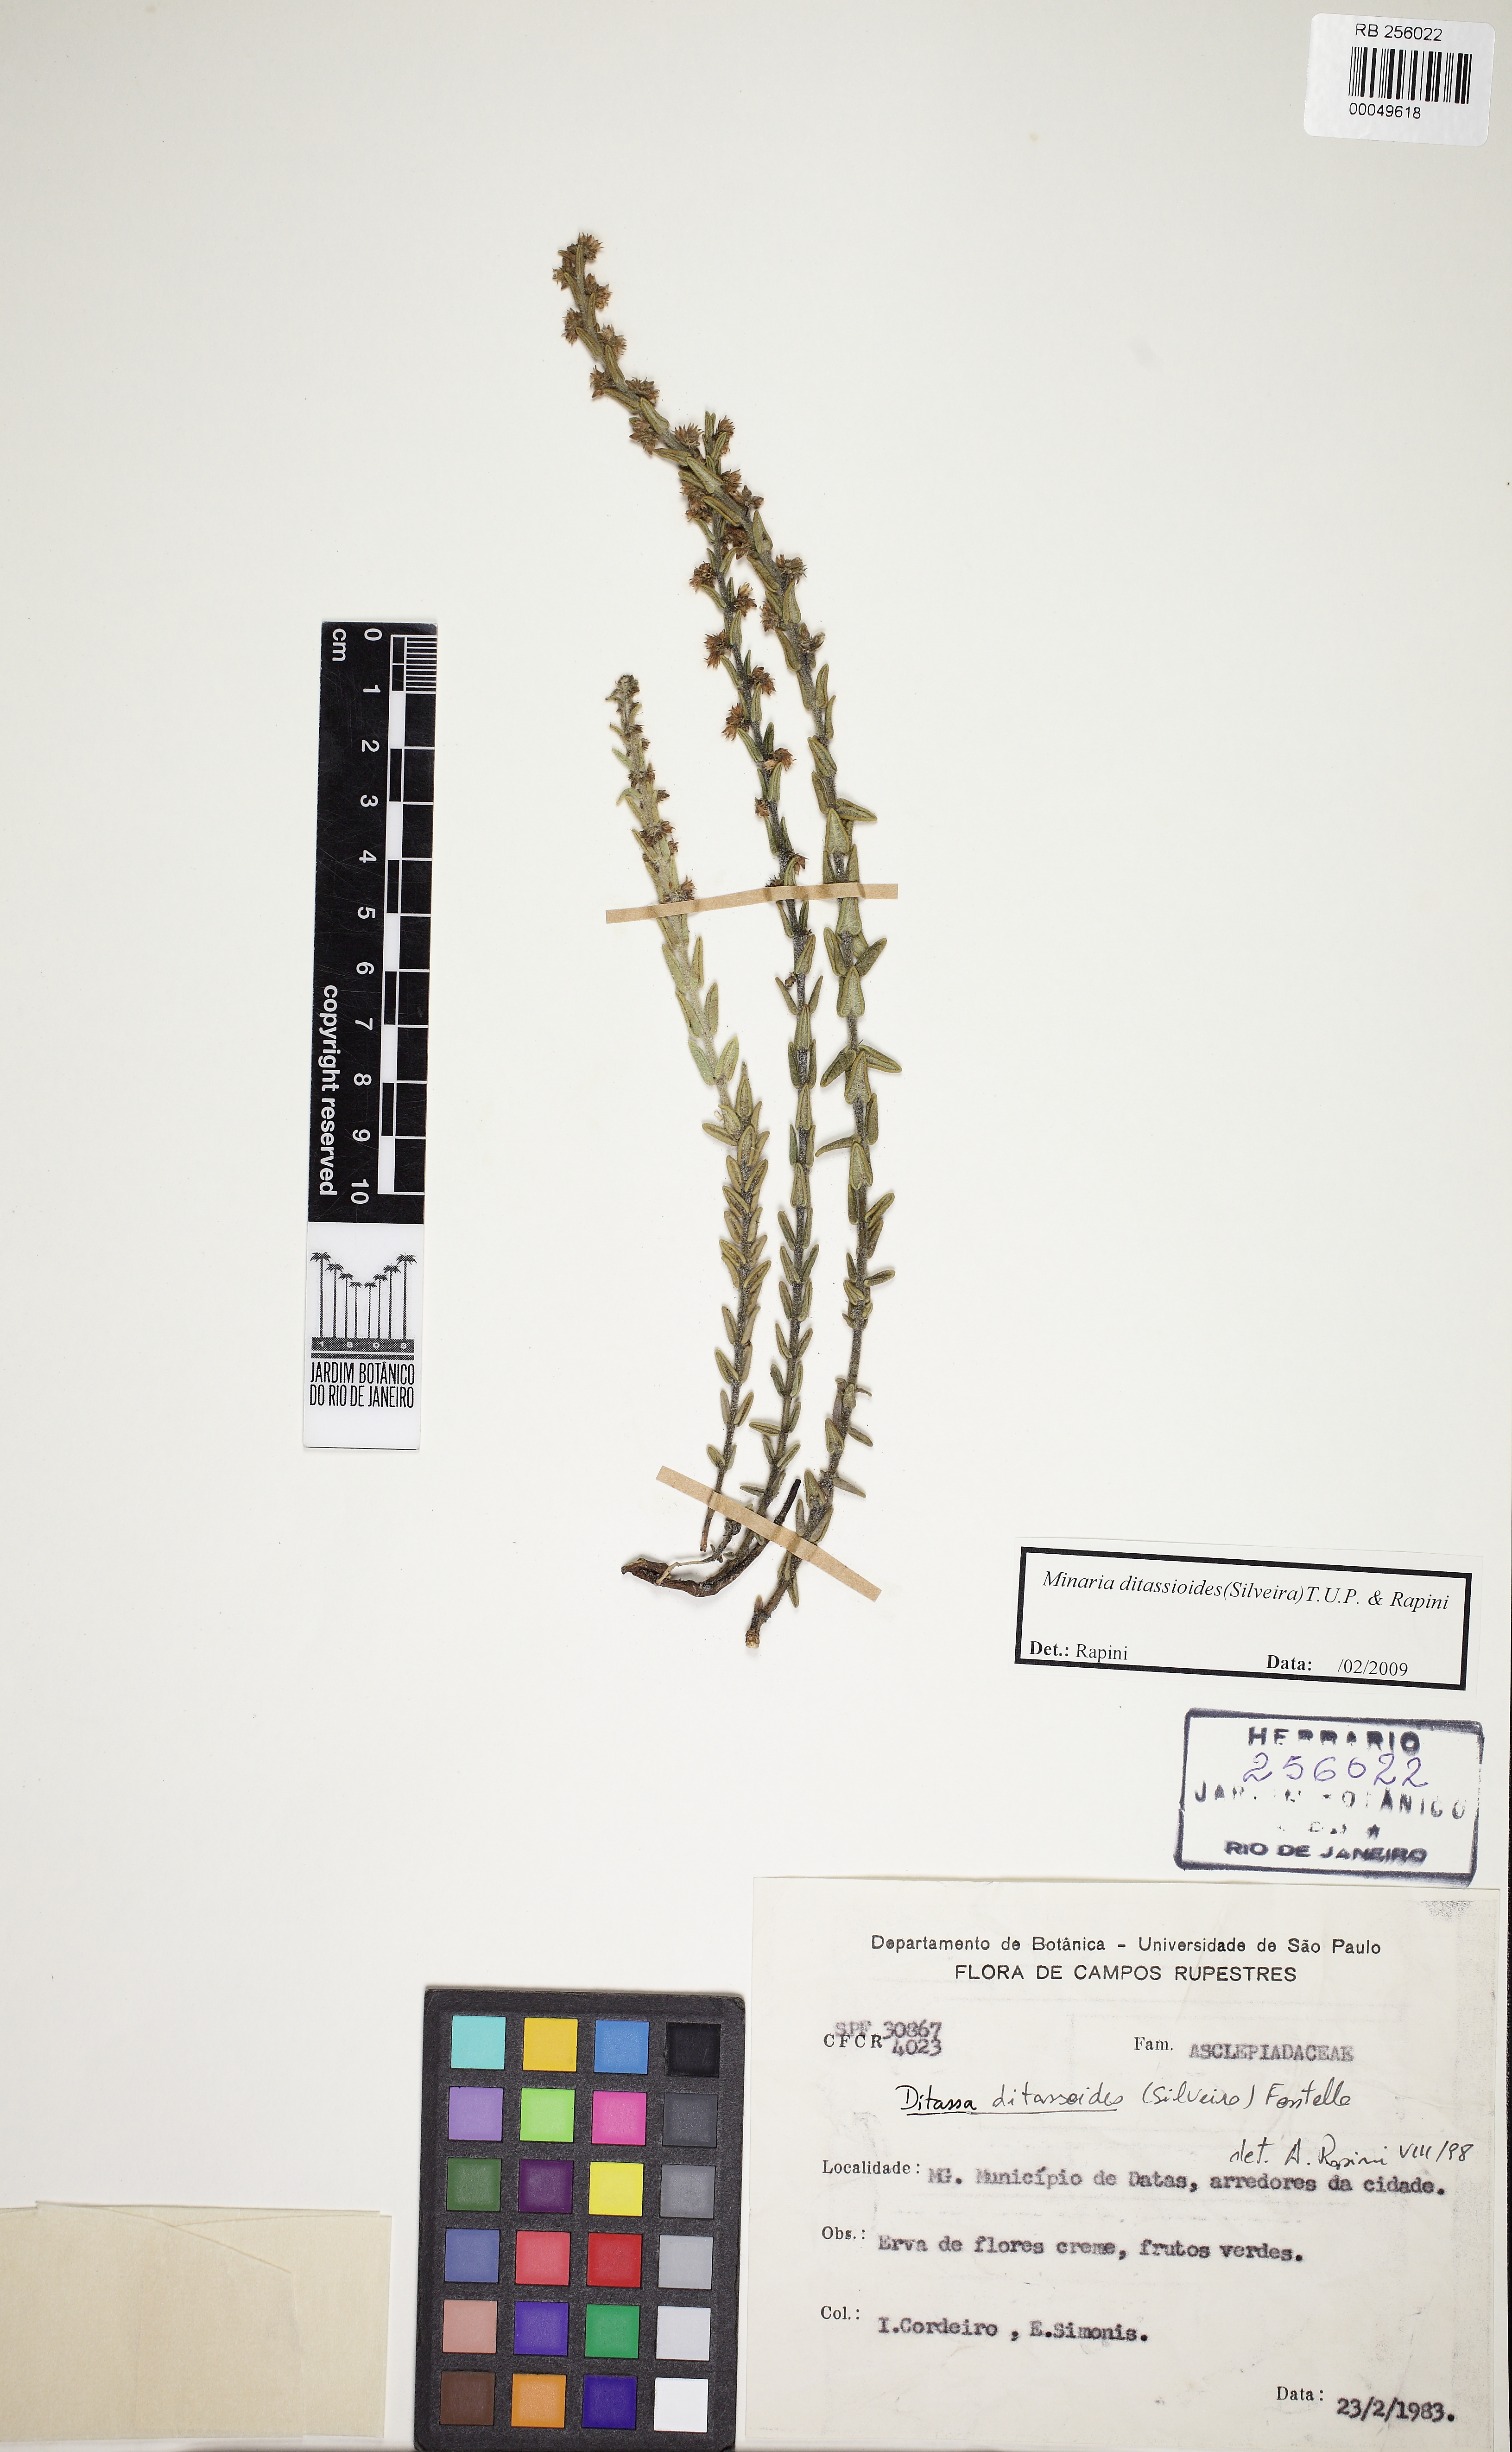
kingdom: Plantae
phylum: Tracheophyta
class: Magnoliopsida
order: Gentianales
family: Apocynaceae
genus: Minaria
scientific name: Minaria ditassoides
